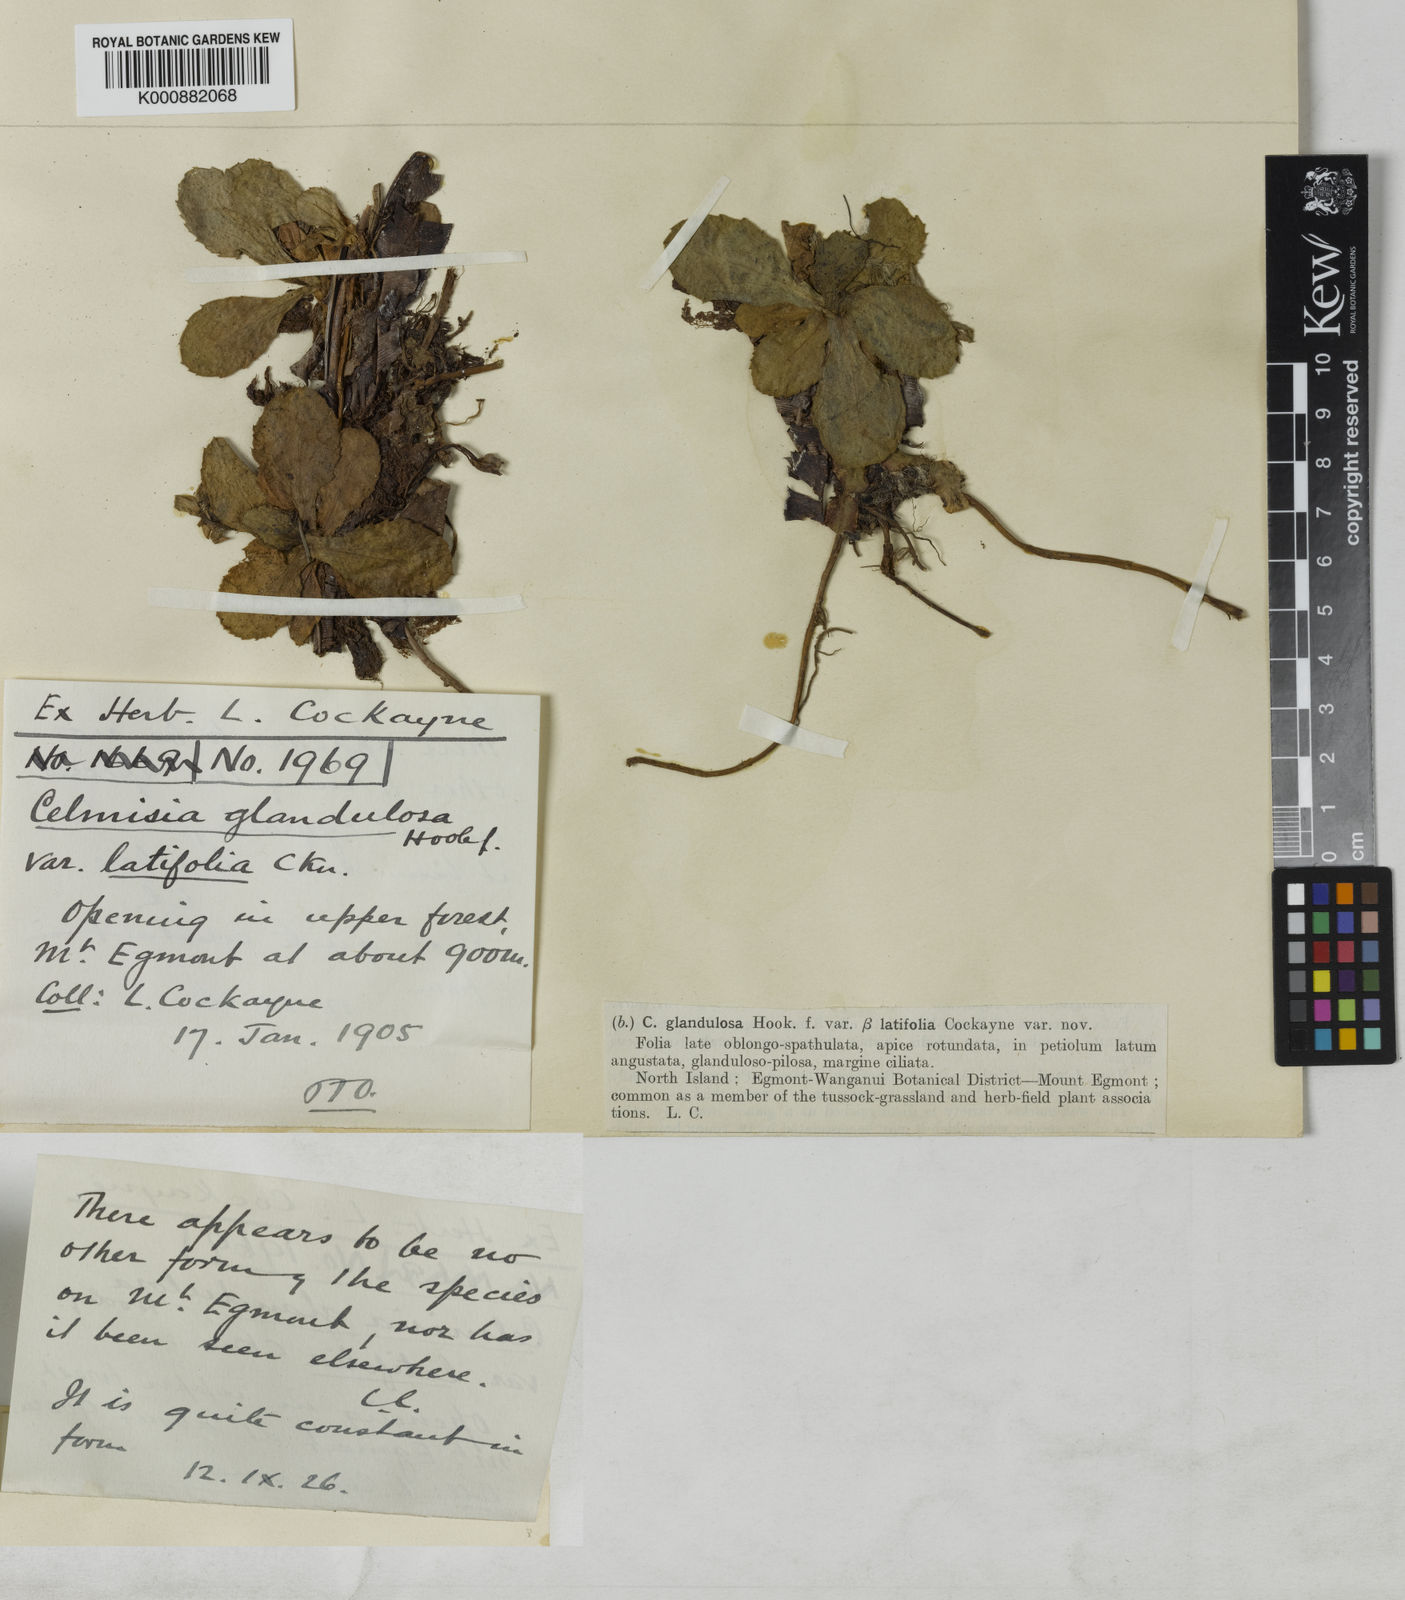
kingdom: Plantae
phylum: Tracheophyta
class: Magnoliopsida
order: Asterales
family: Asteraceae
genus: Celmisia
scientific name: Celmisia glandulosa
